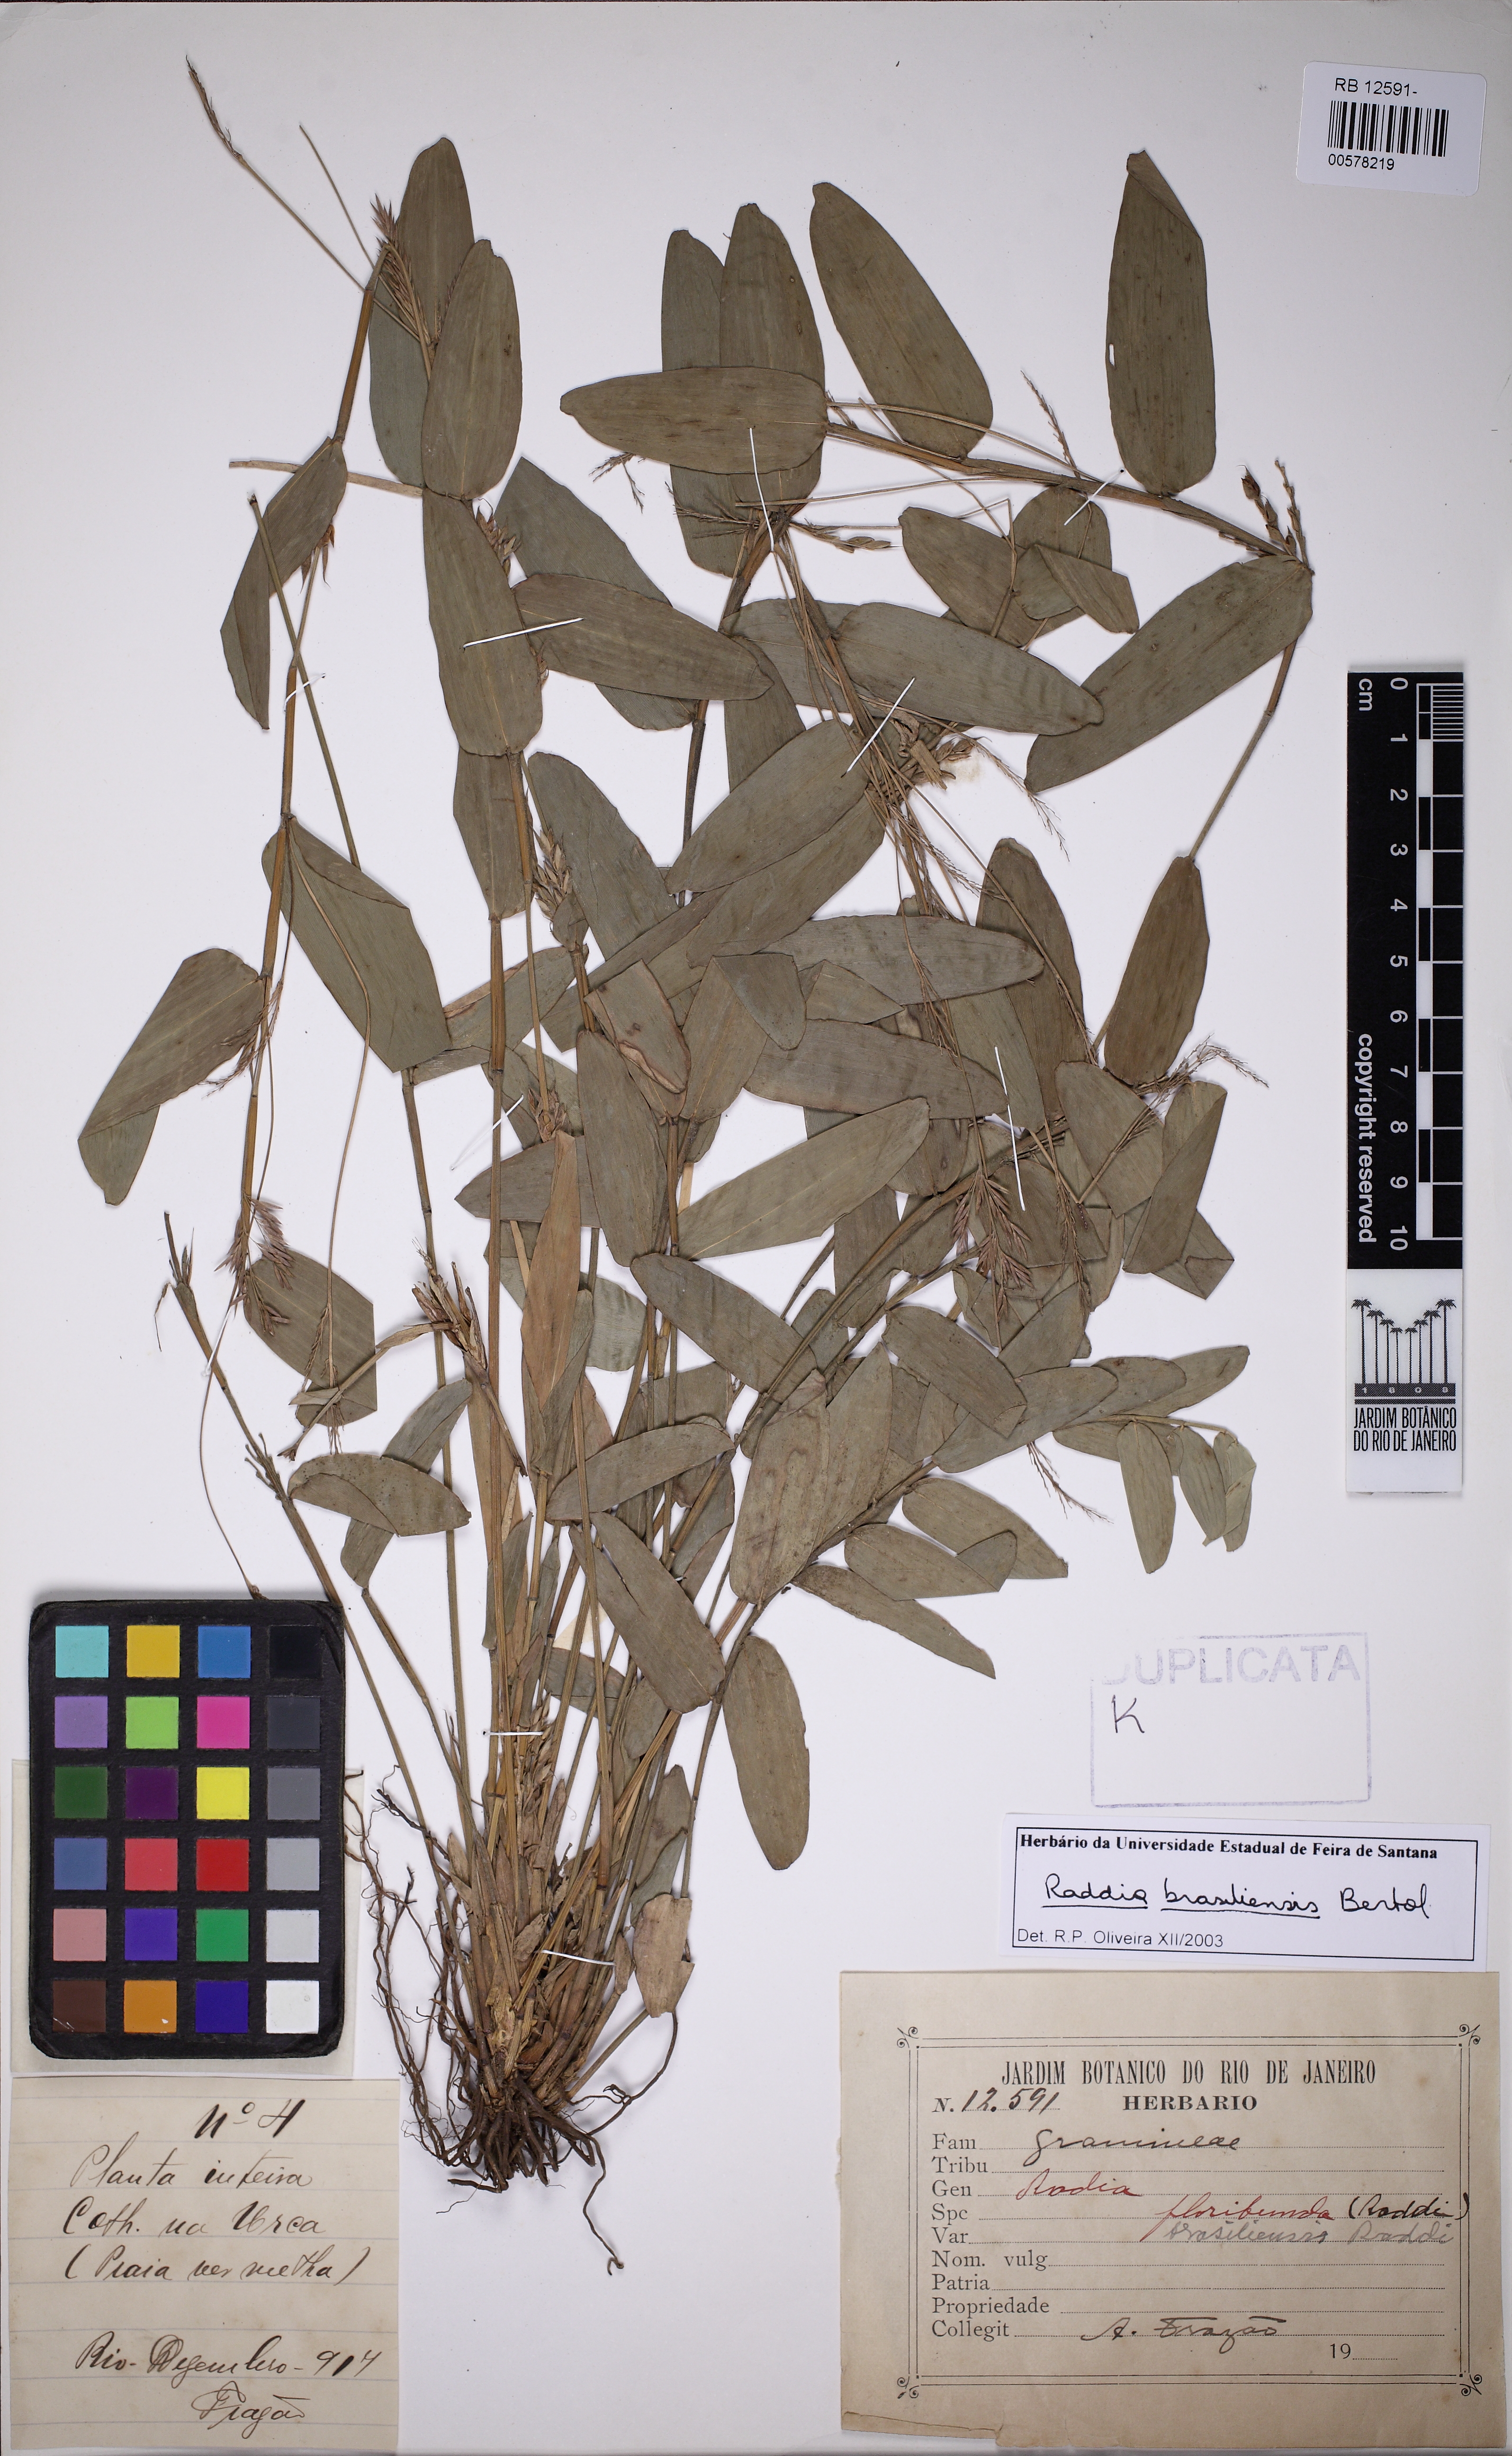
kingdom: Plantae
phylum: Tracheophyta
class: Liliopsida
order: Poales
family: Poaceae
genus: Raddia
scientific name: Raddia brasiliensis
